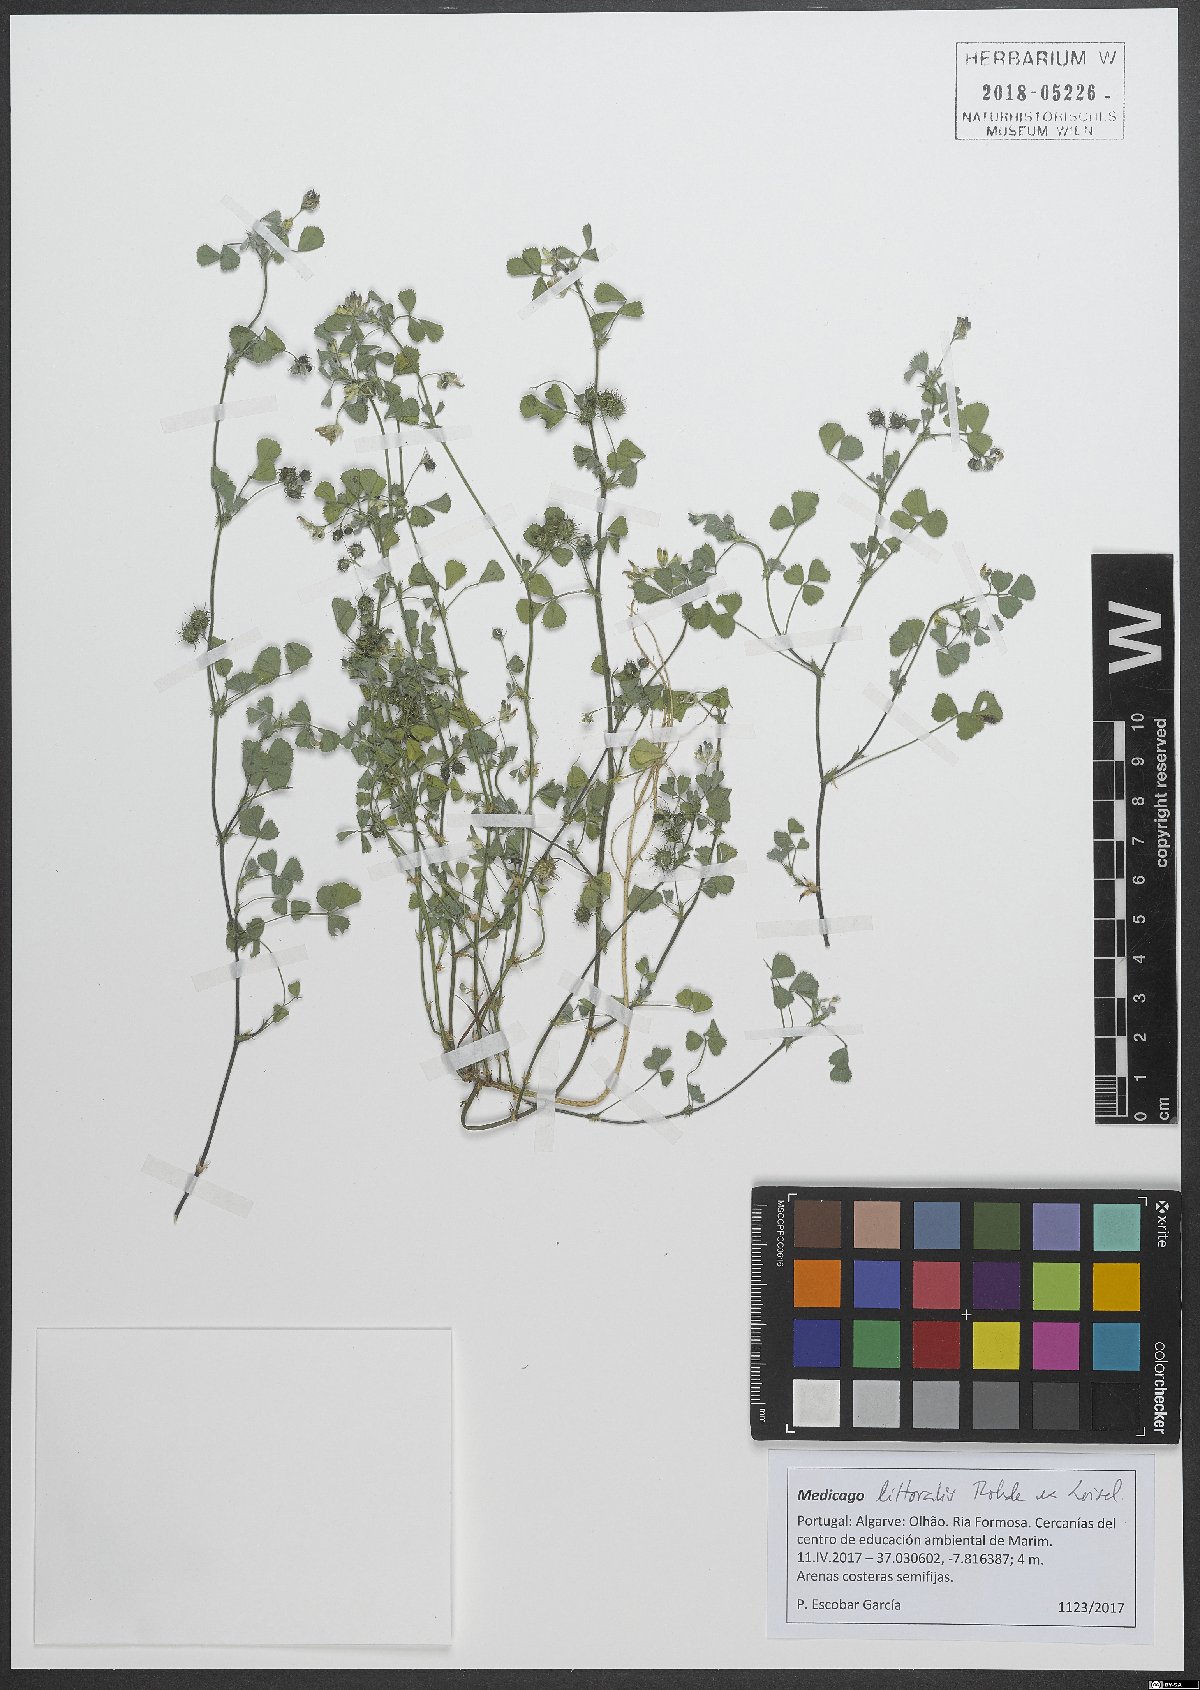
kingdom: Plantae
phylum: Tracheophyta
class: Magnoliopsida
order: Fabales
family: Fabaceae
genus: Medicago
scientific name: Medicago littoralis
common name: Shore medick
